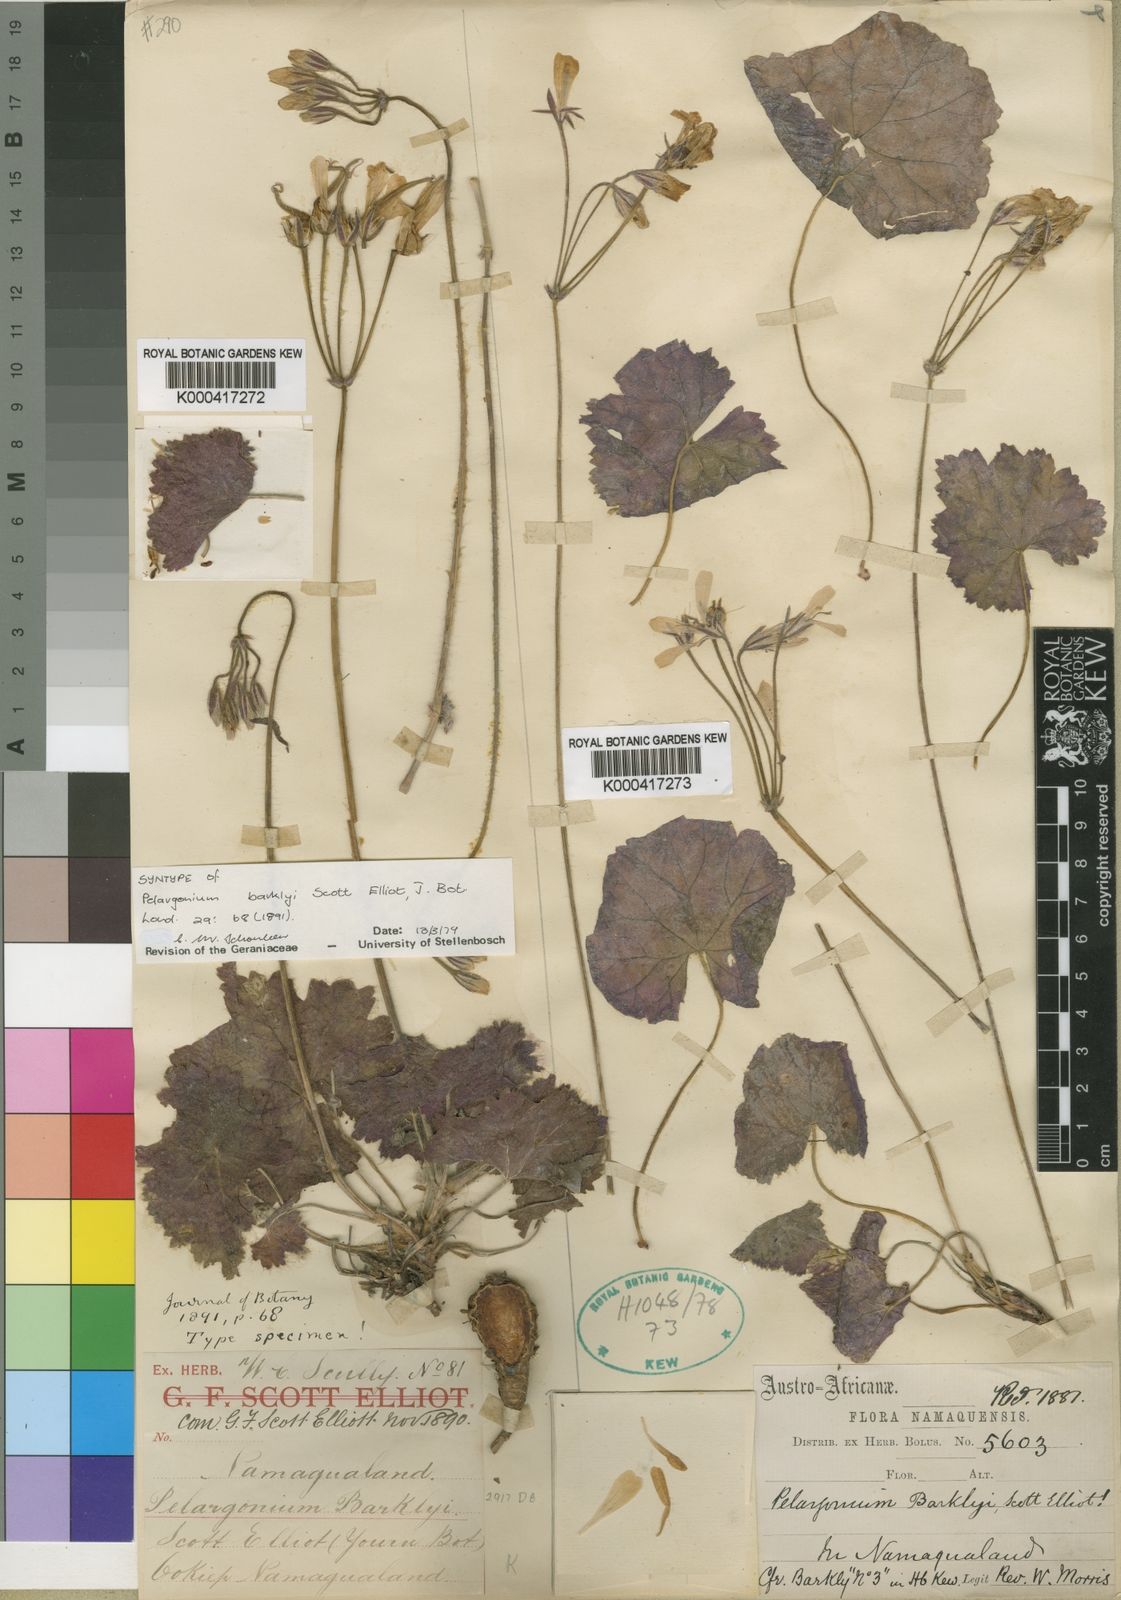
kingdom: Plantae
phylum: Tracheophyta
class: Magnoliopsida
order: Geraniales
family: Geraniaceae
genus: Pelargonium
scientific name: Pelargonium barklyi
